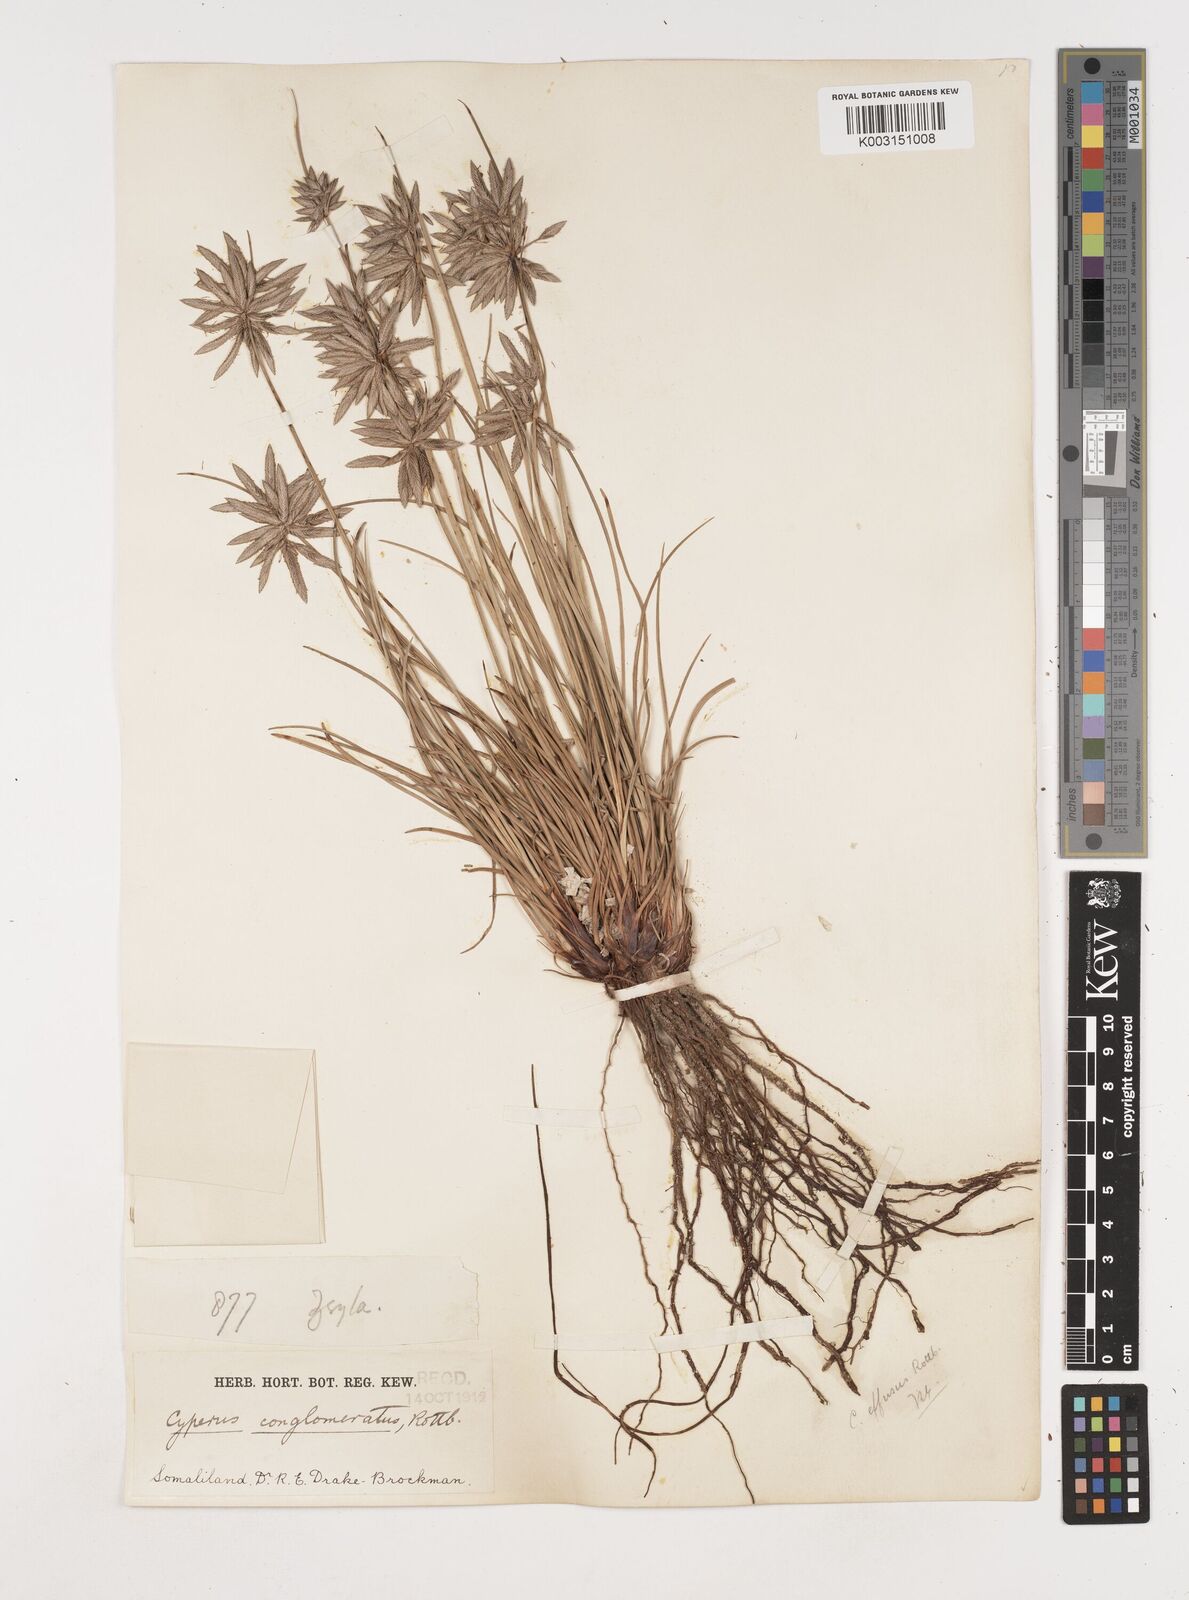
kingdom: Plantae
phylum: Tracheophyta
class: Liliopsida
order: Poales
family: Cyperaceae
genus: Cyperus
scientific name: Cyperus conglomeratus
